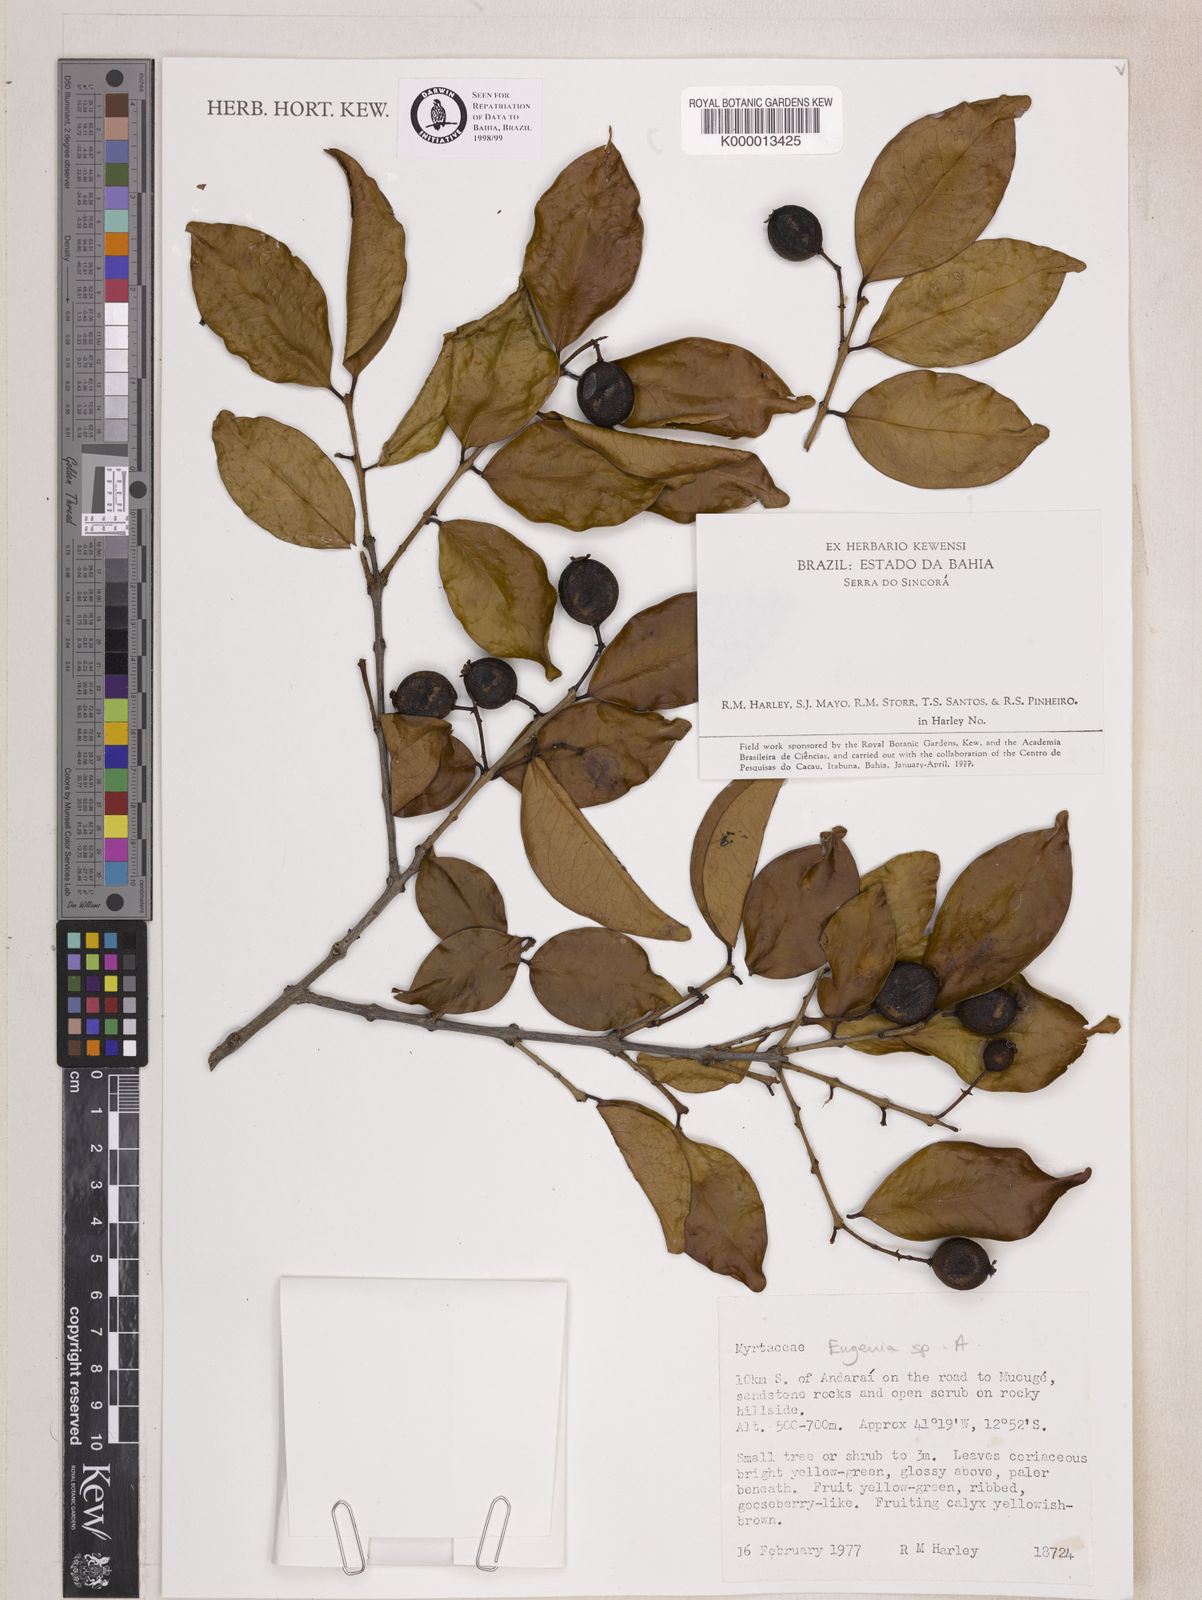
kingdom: Plantae
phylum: Tracheophyta
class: Magnoliopsida
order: Myrtales
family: Myrtaceae
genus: Eugenia
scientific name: Eugenia
